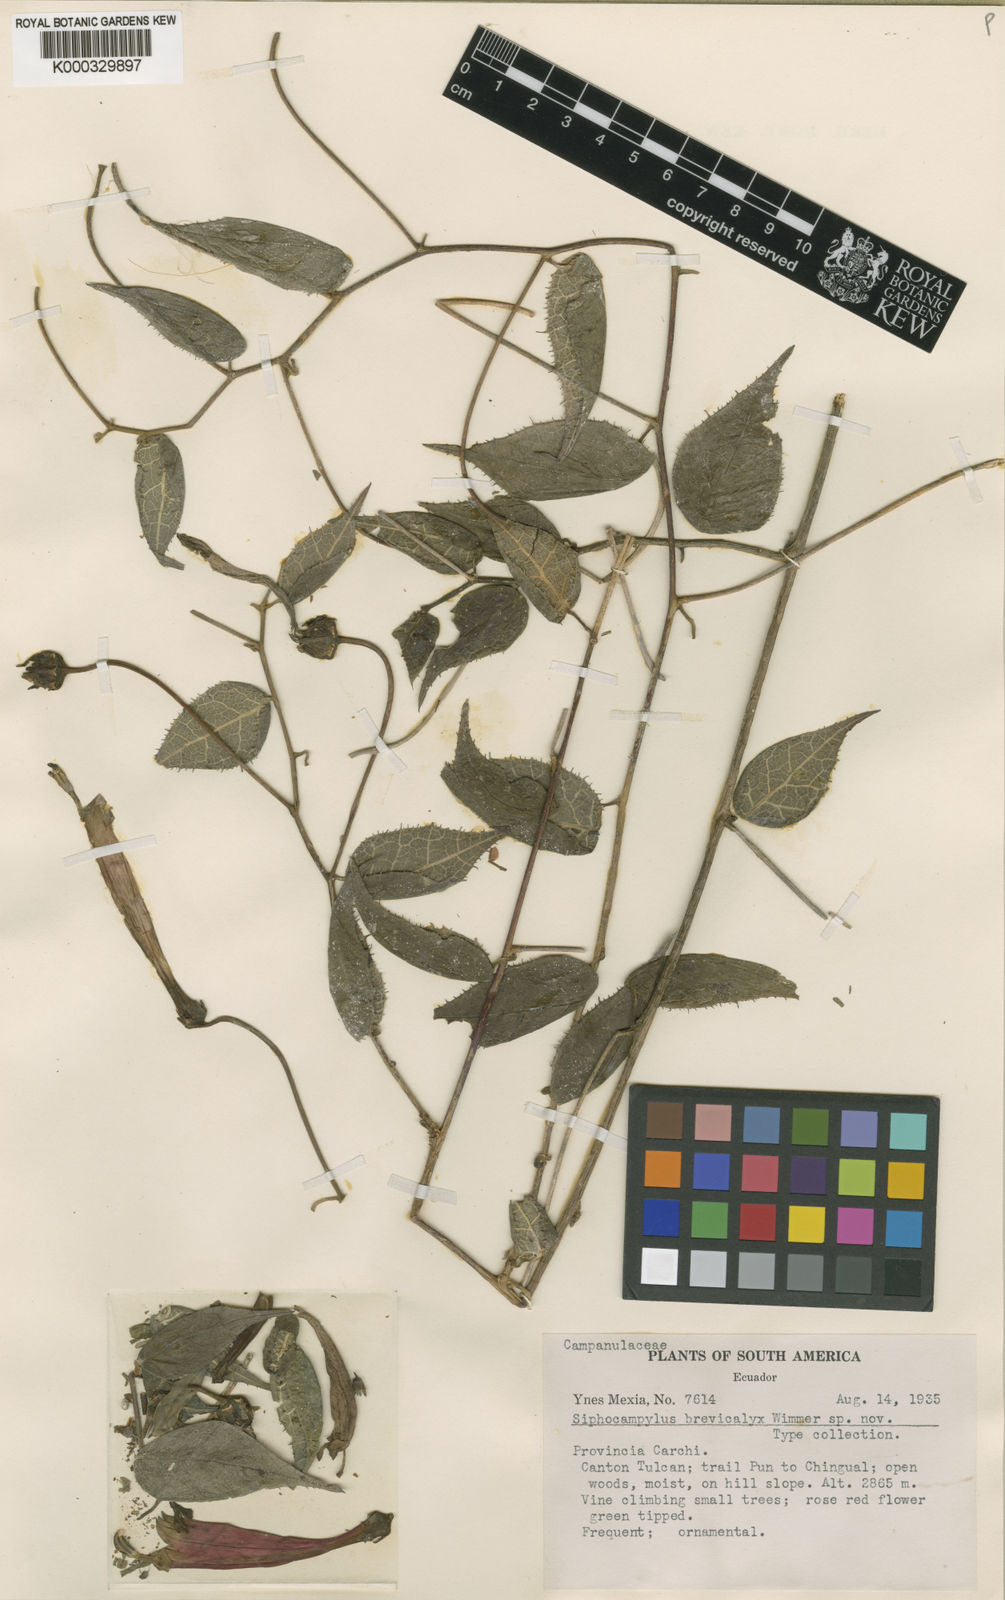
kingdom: Plantae
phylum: Tracheophyta
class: Magnoliopsida
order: Asterales
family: Campanulaceae
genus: Siphocampylus
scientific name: Siphocampylus brevicalyx
